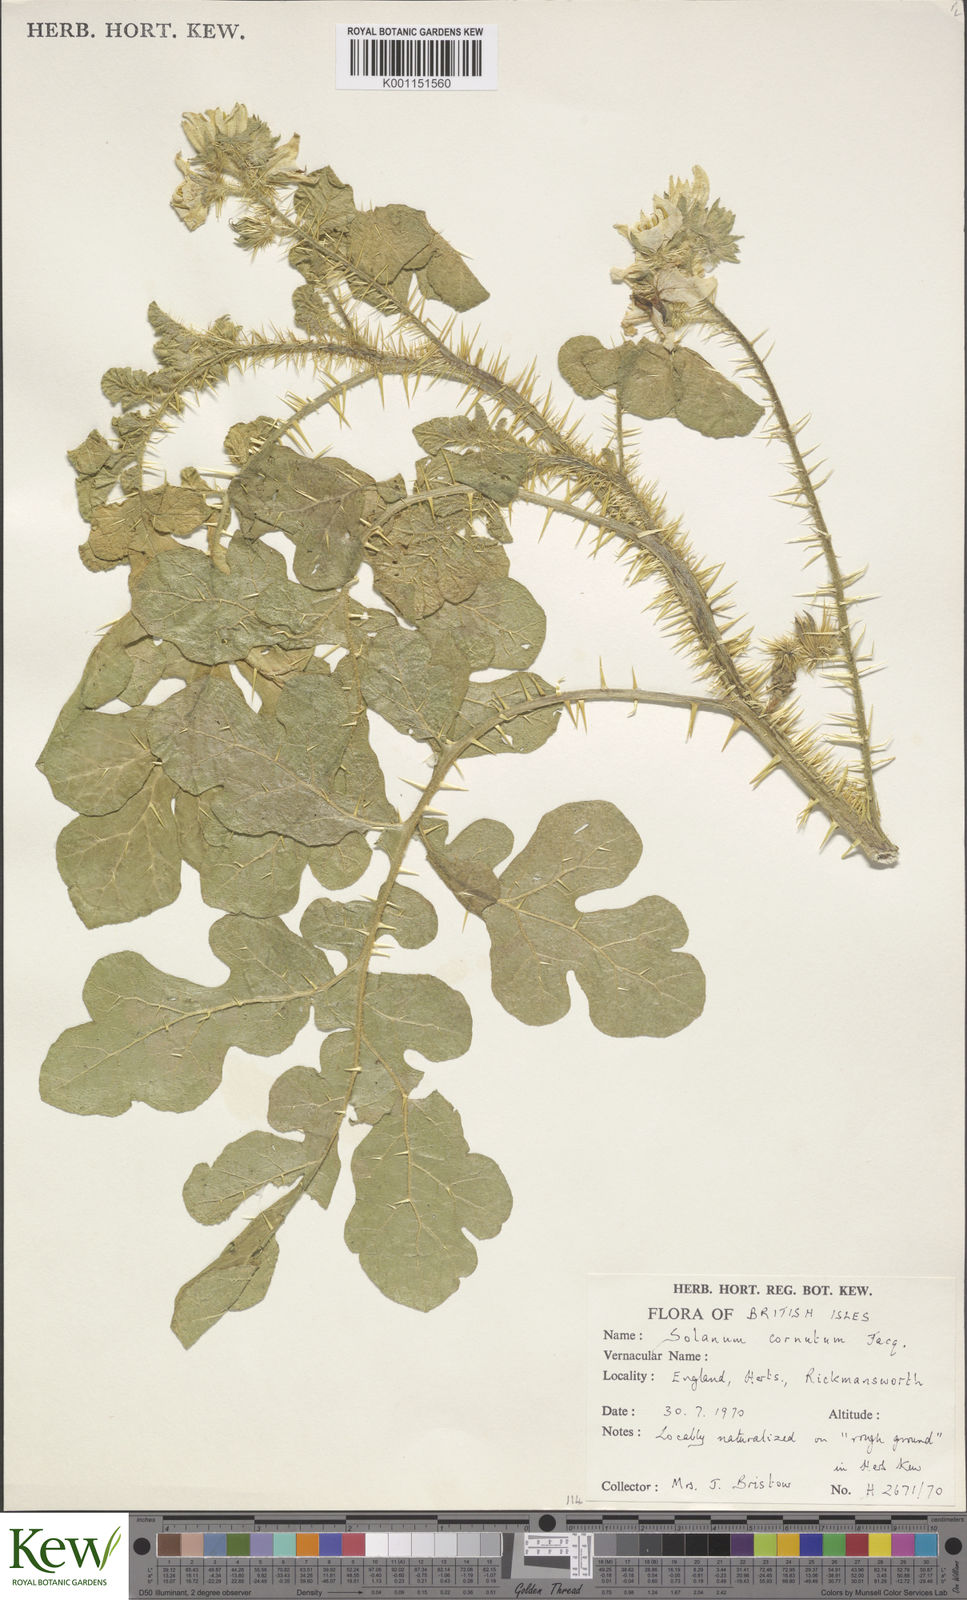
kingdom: Plantae
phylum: Tracheophyta
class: Magnoliopsida
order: Solanales
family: Solanaceae
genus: Solanum
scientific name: Solanum angustifolium
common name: Buffalobur nightshade
